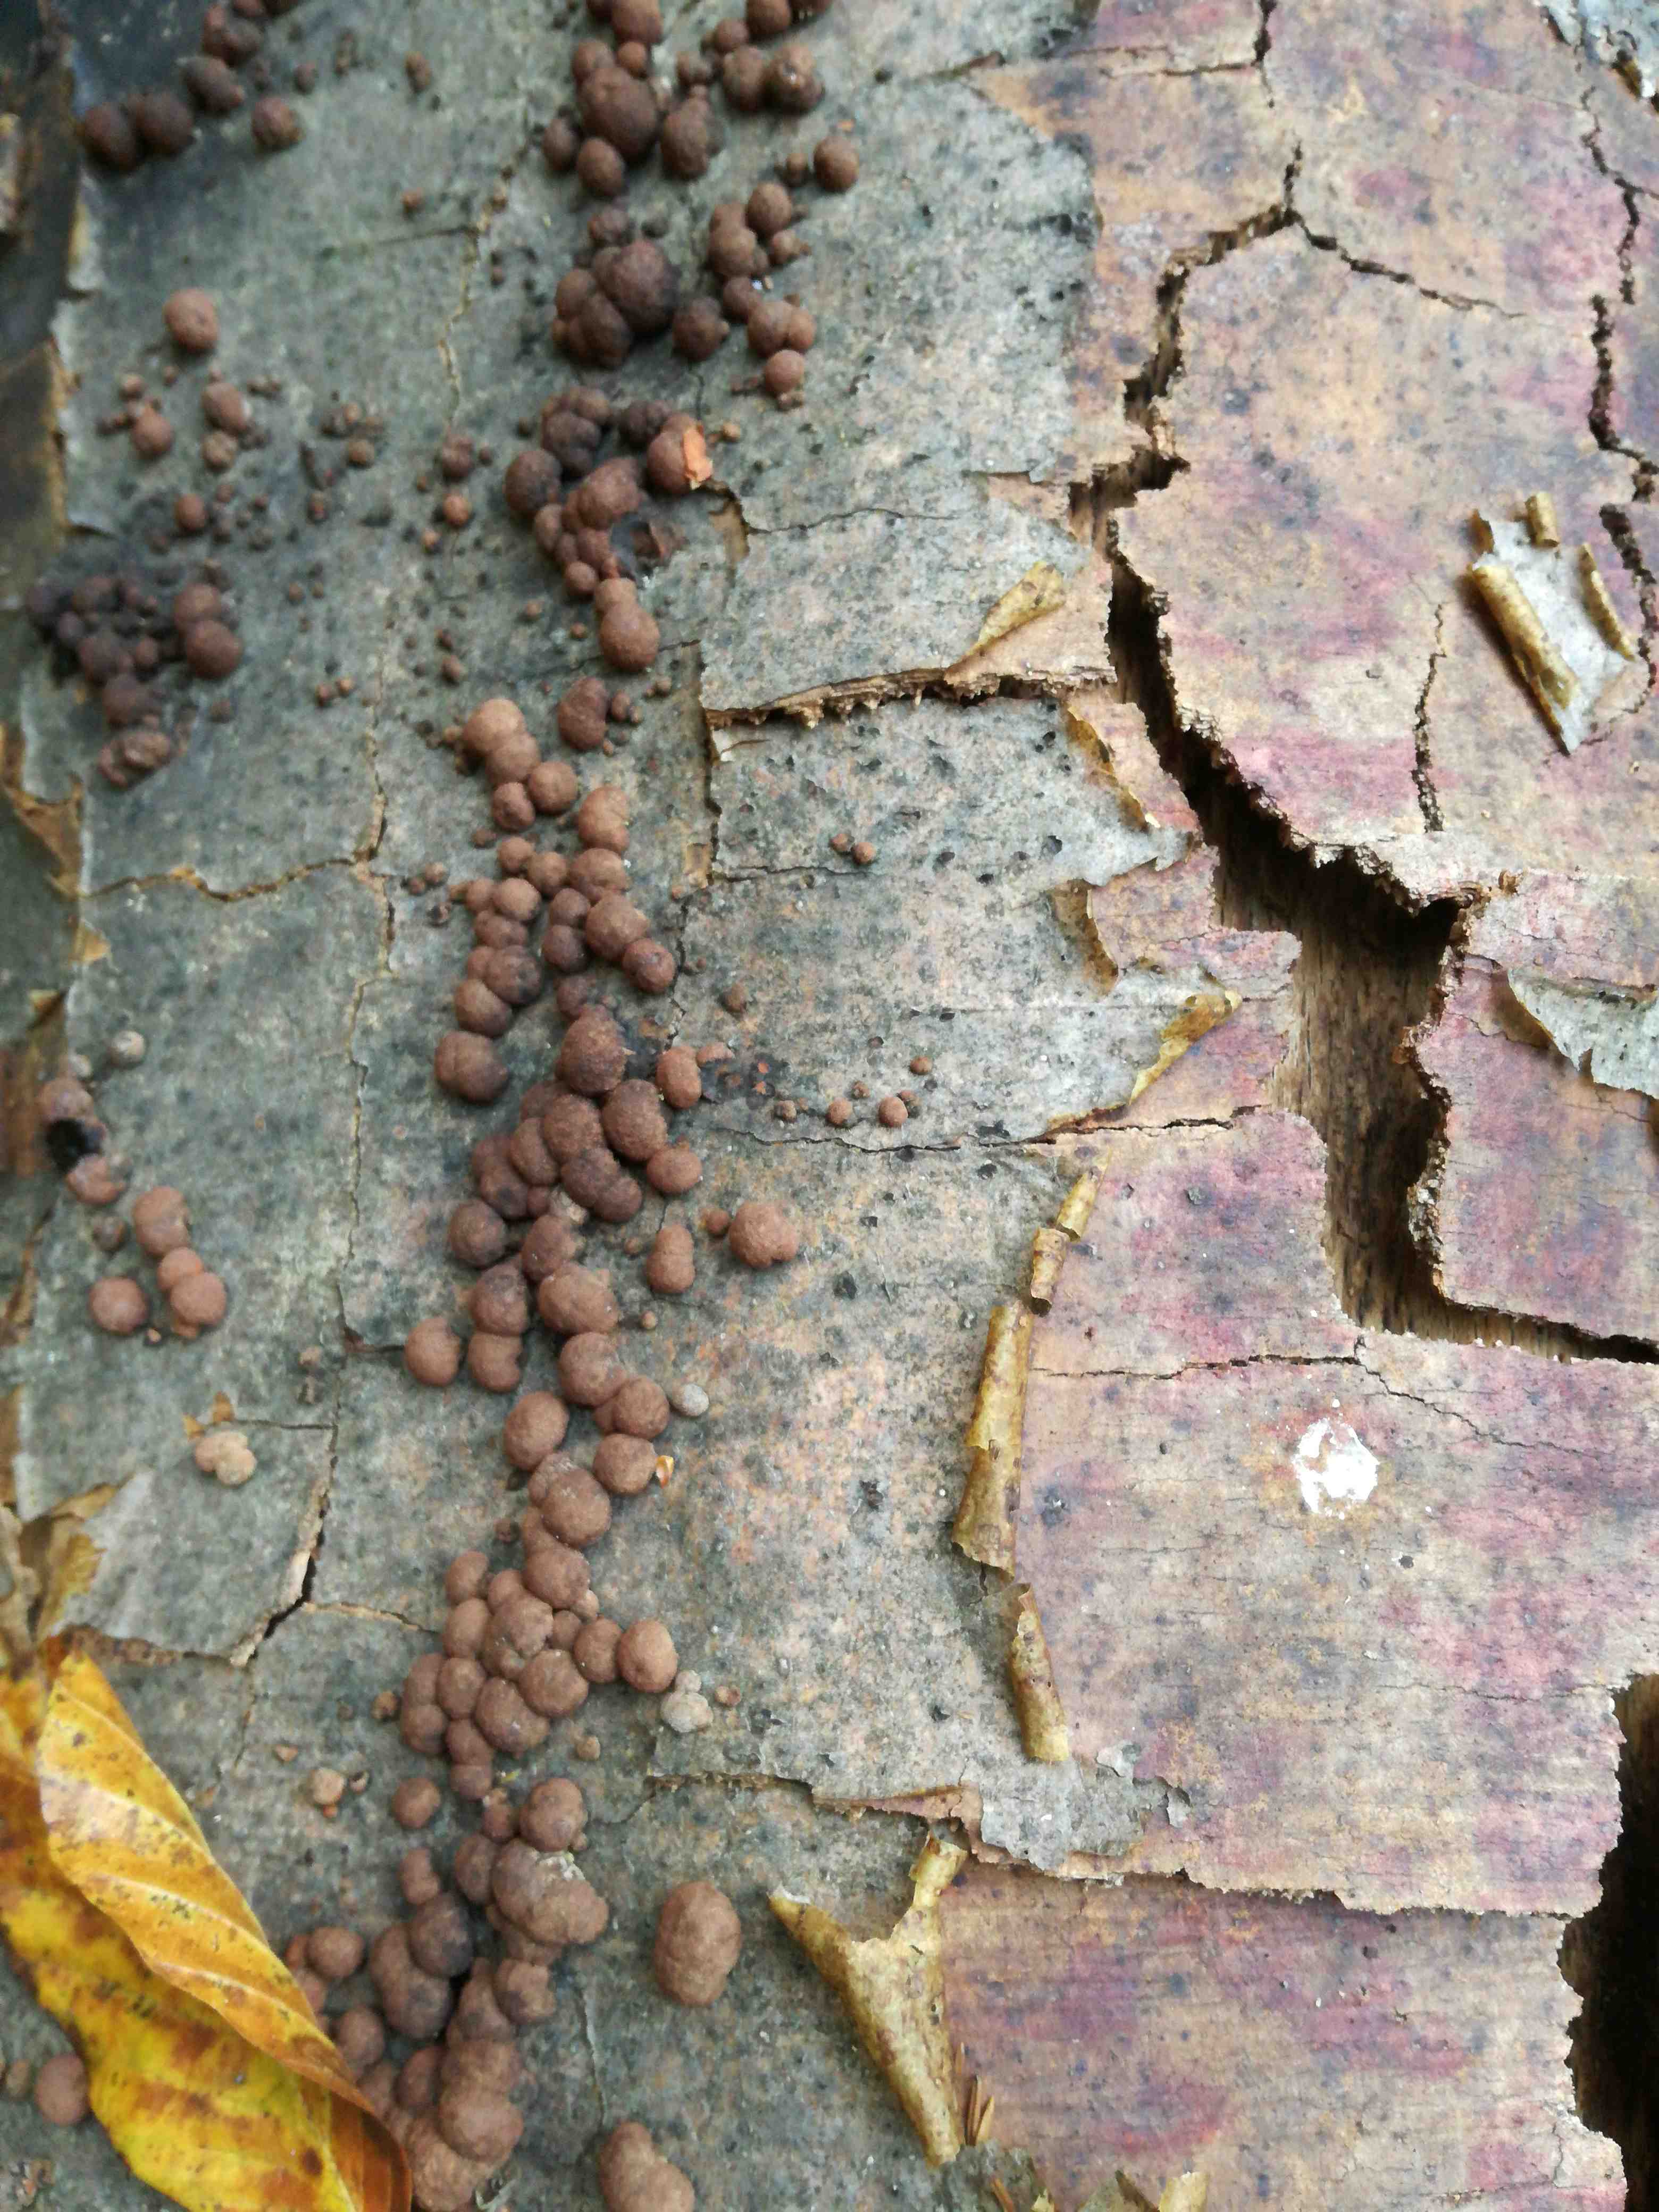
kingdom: Fungi
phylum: Ascomycota
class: Sordariomycetes
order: Xylariales
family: Hypoxylaceae
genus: Hypoxylon
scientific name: Hypoxylon fragiforme
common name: kuljordbær
